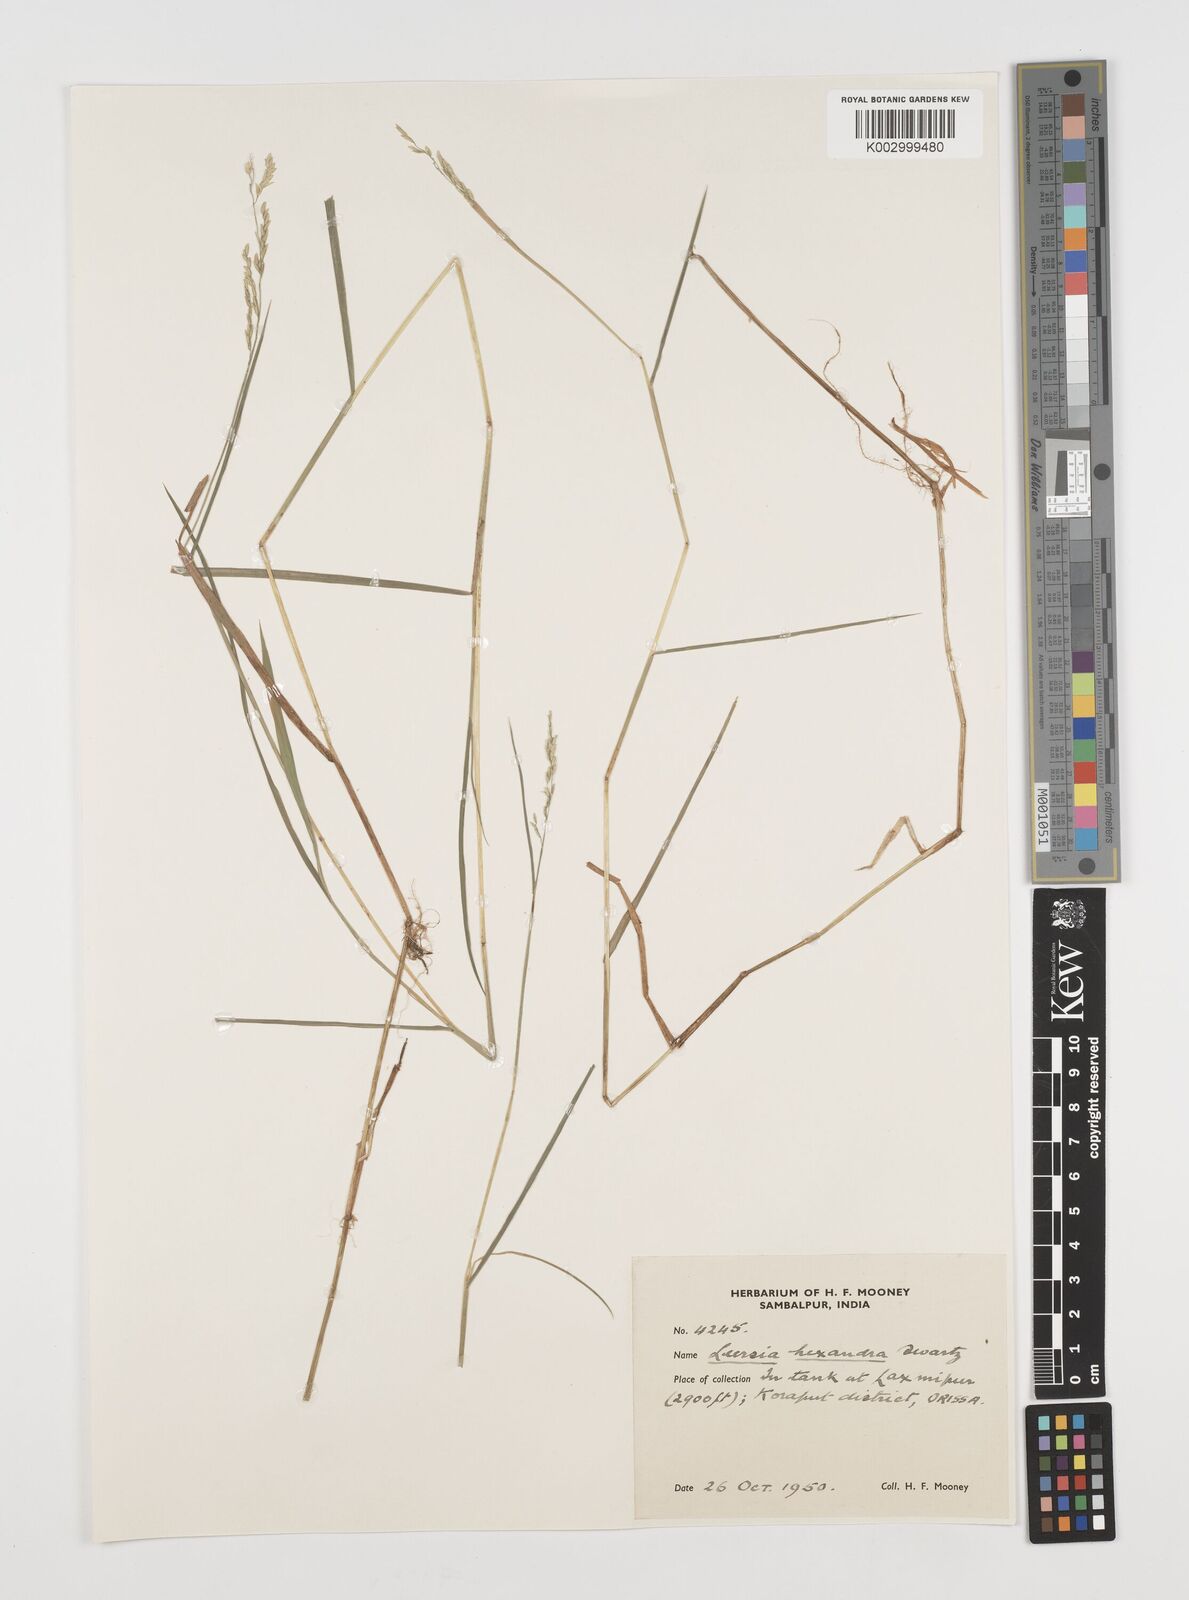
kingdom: Plantae
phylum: Tracheophyta
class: Liliopsida
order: Poales
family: Poaceae
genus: Leersia
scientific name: Leersia hexandra
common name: Southern cut grass
